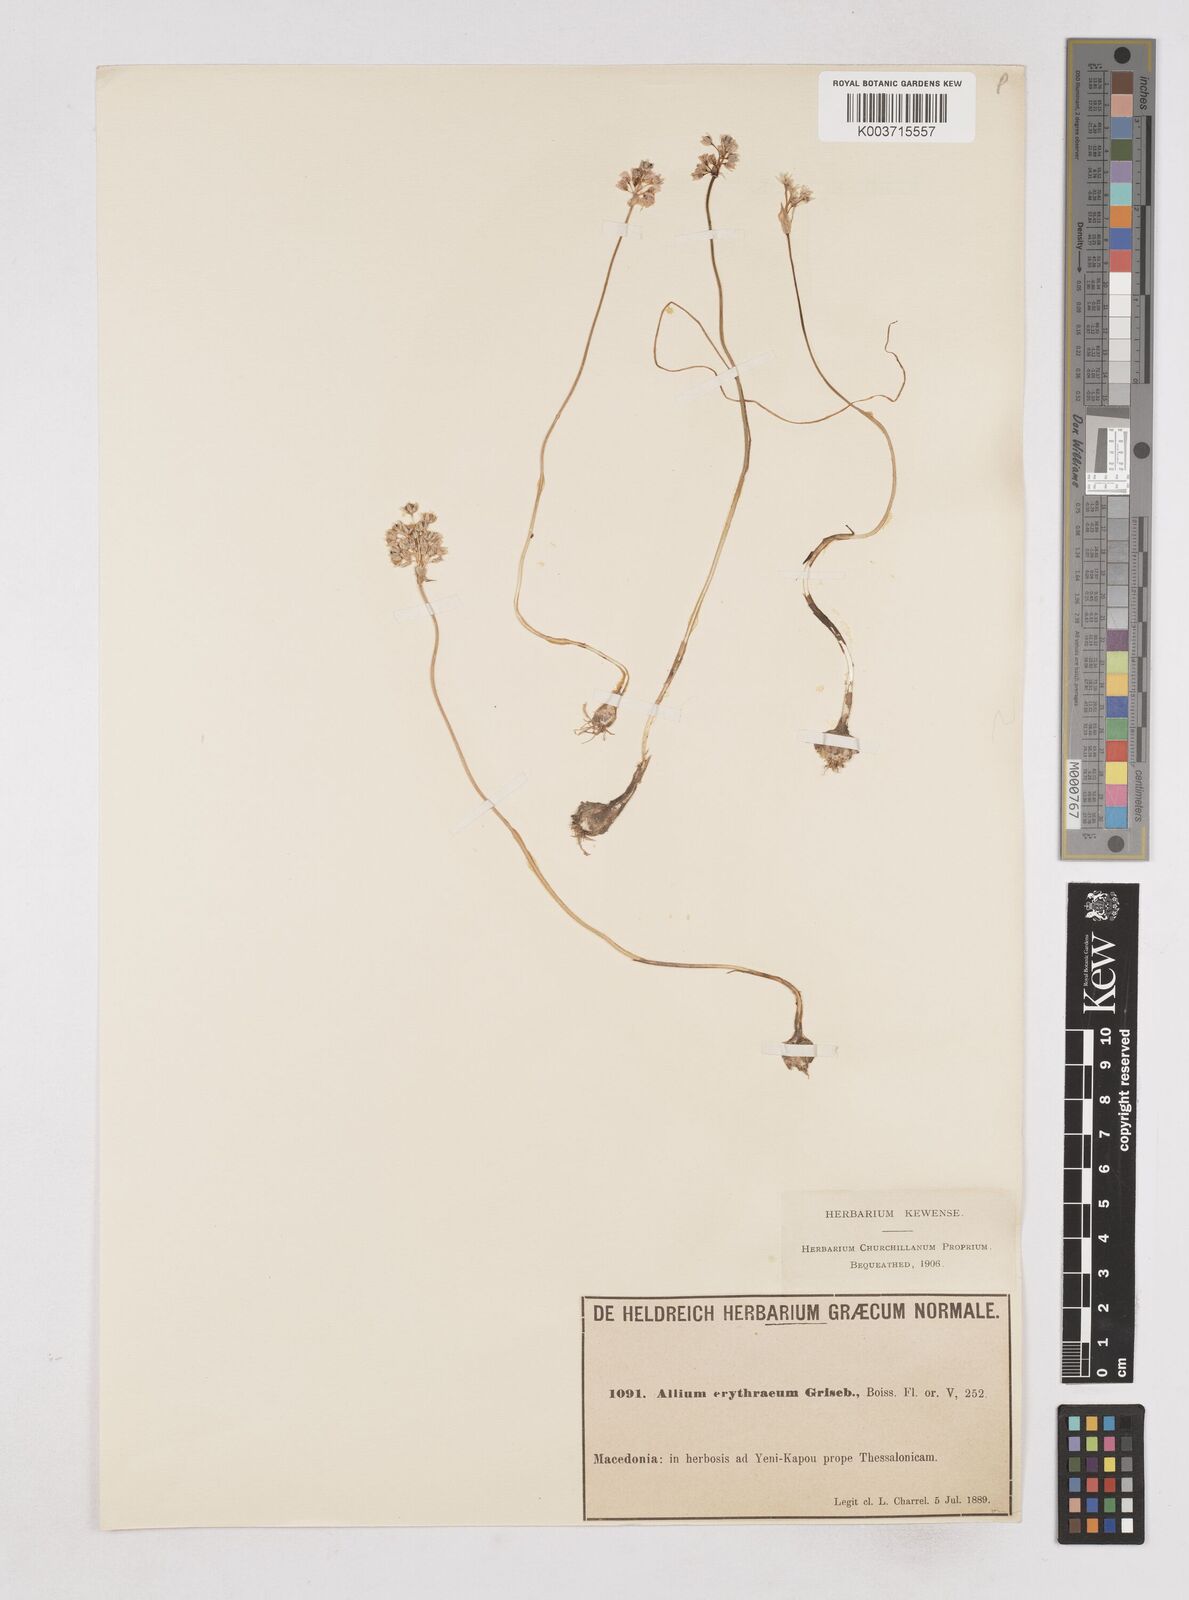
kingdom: Plantae
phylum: Tracheophyta
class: Liliopsida
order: Asparagales
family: Amaryllidaceae
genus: Allium
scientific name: Allium
